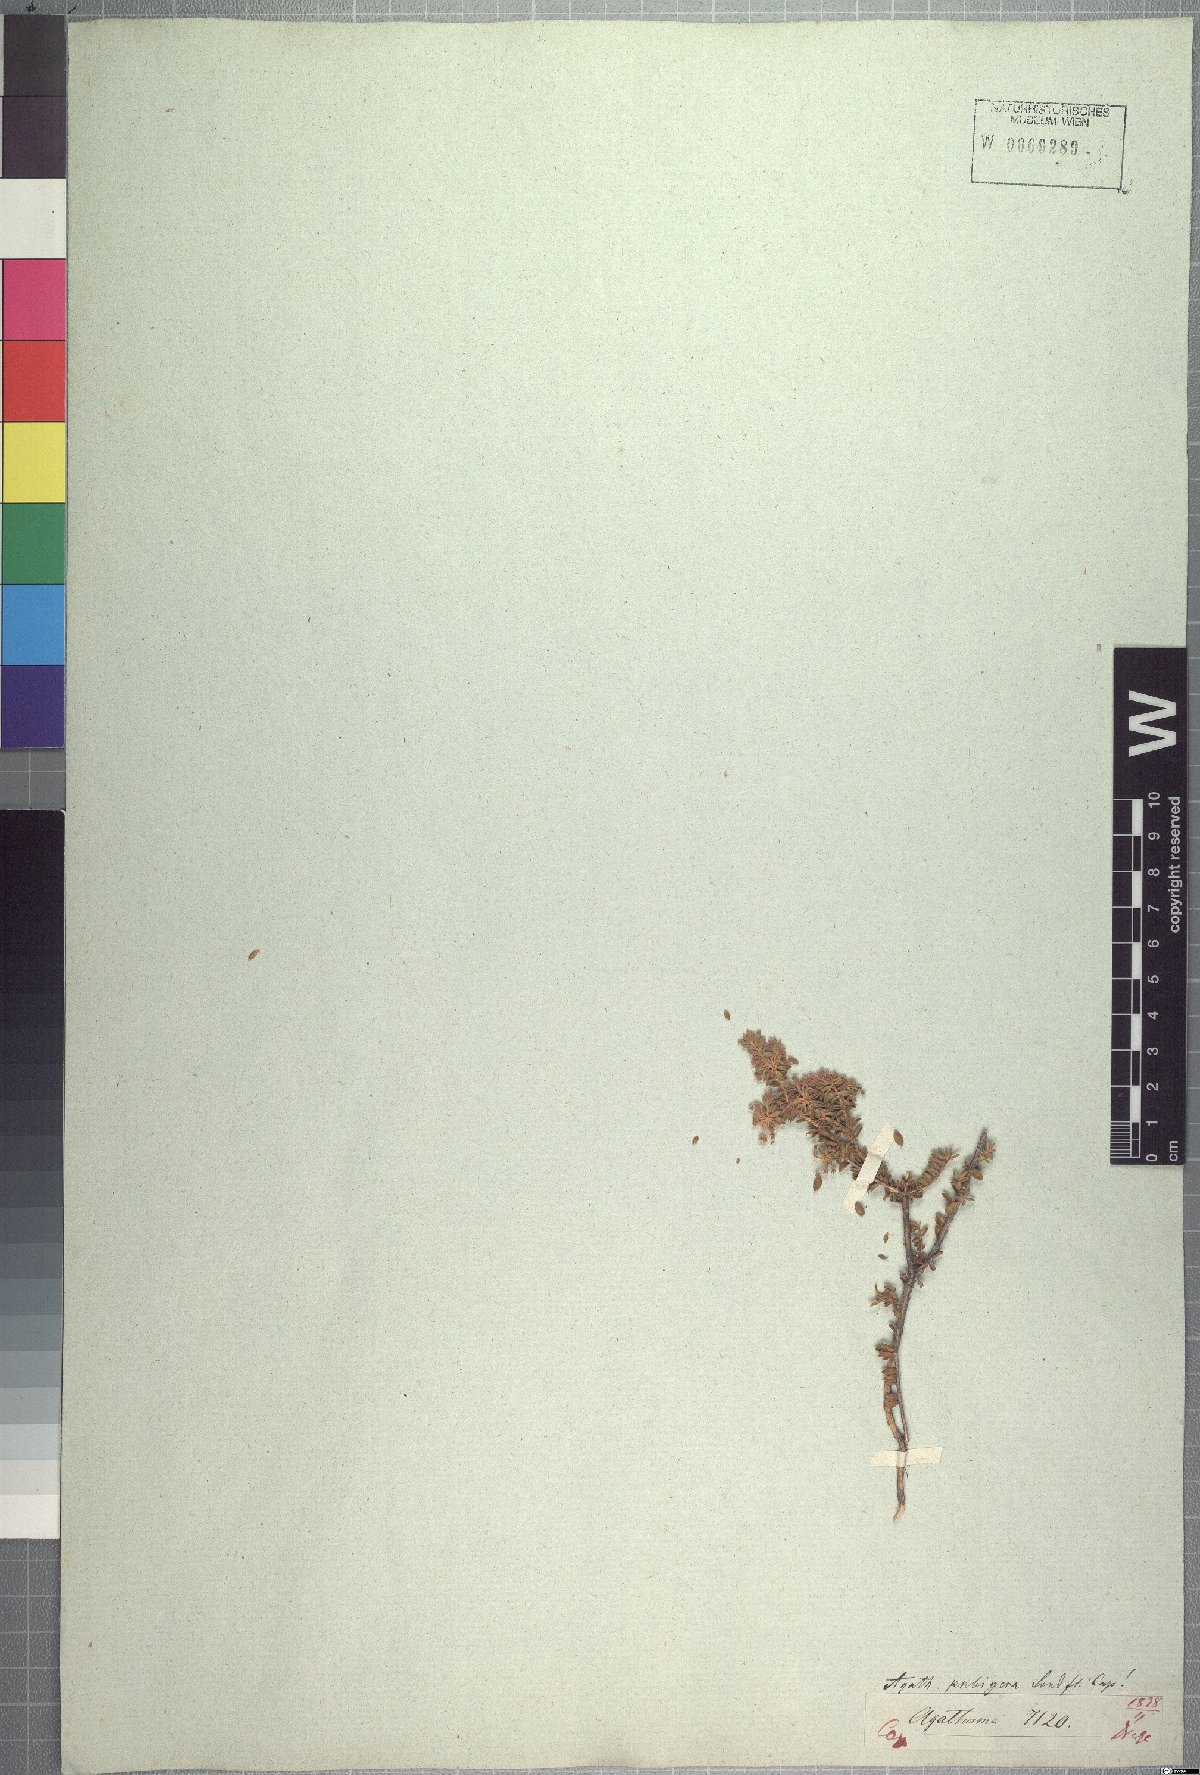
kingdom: Plantae
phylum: Tracheophyta
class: Magnoliopsida
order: Sapindales
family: Rutaceae
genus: Agathosma
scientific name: Agathosma pubigera
